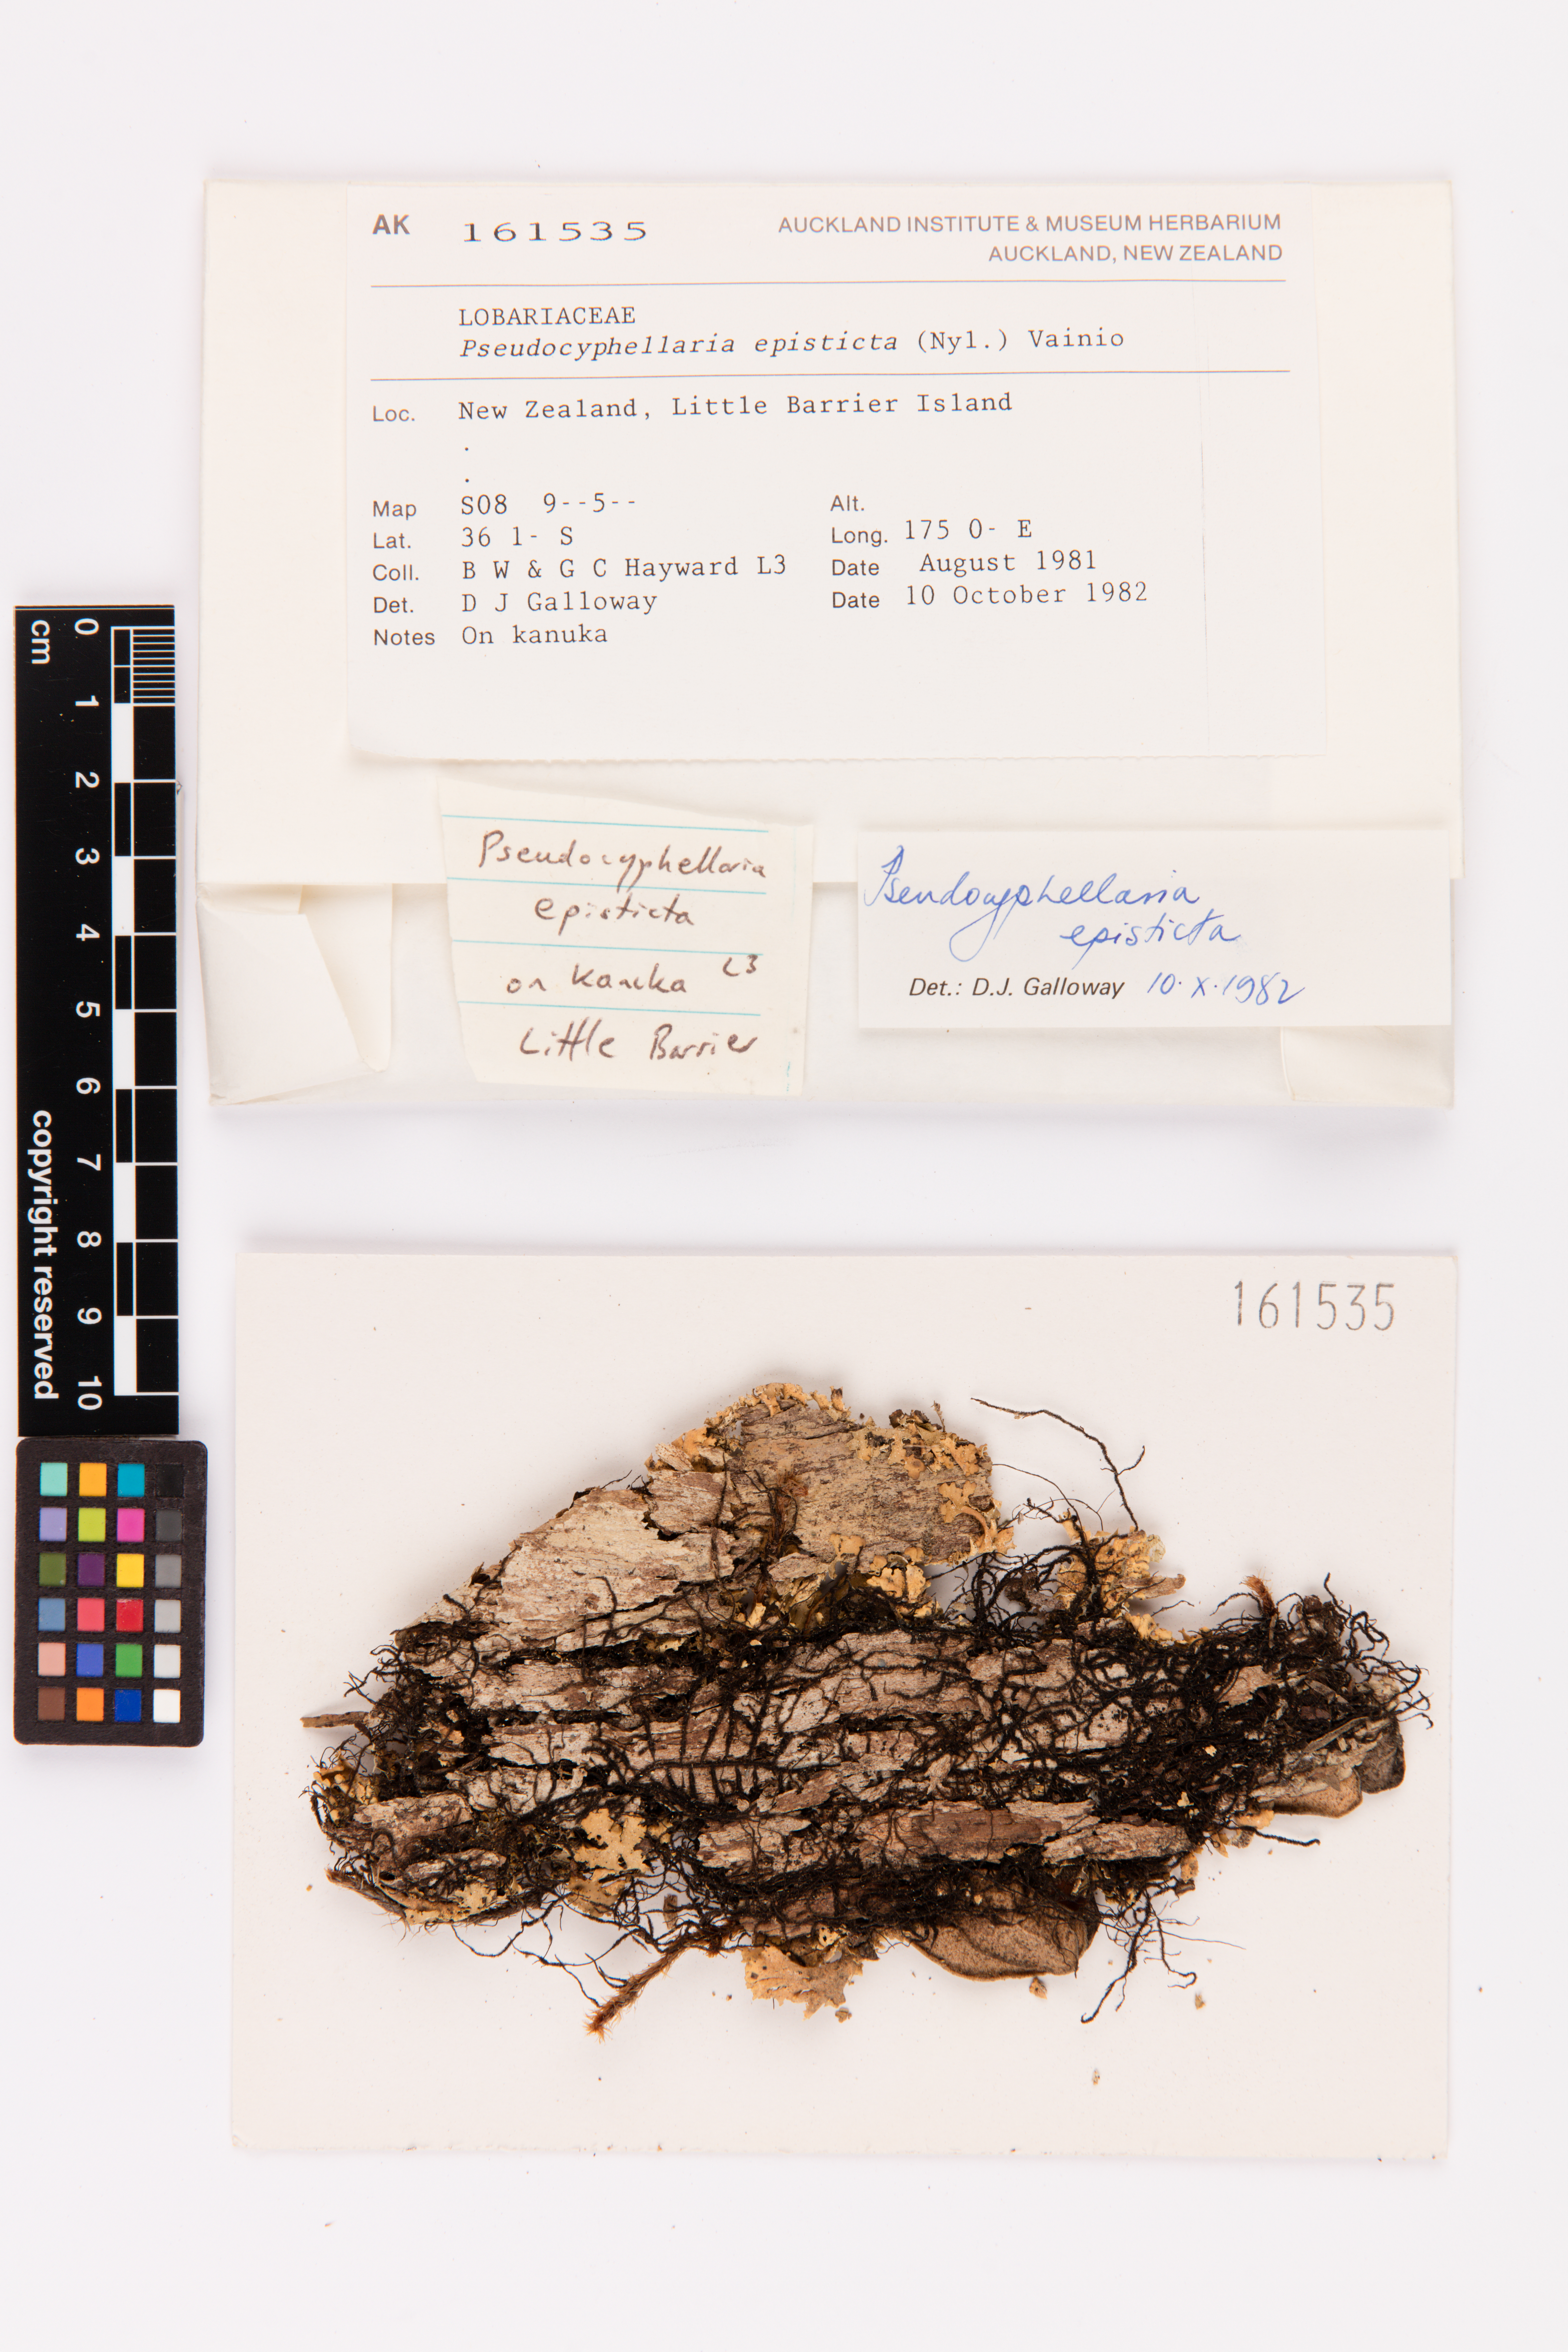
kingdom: Fungi
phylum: Ascomycota
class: Lecanoromycetes
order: Peltigerales
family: Lobariaceae
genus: Pseudocyphellaria
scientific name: Pseudocyphellaria episticta
